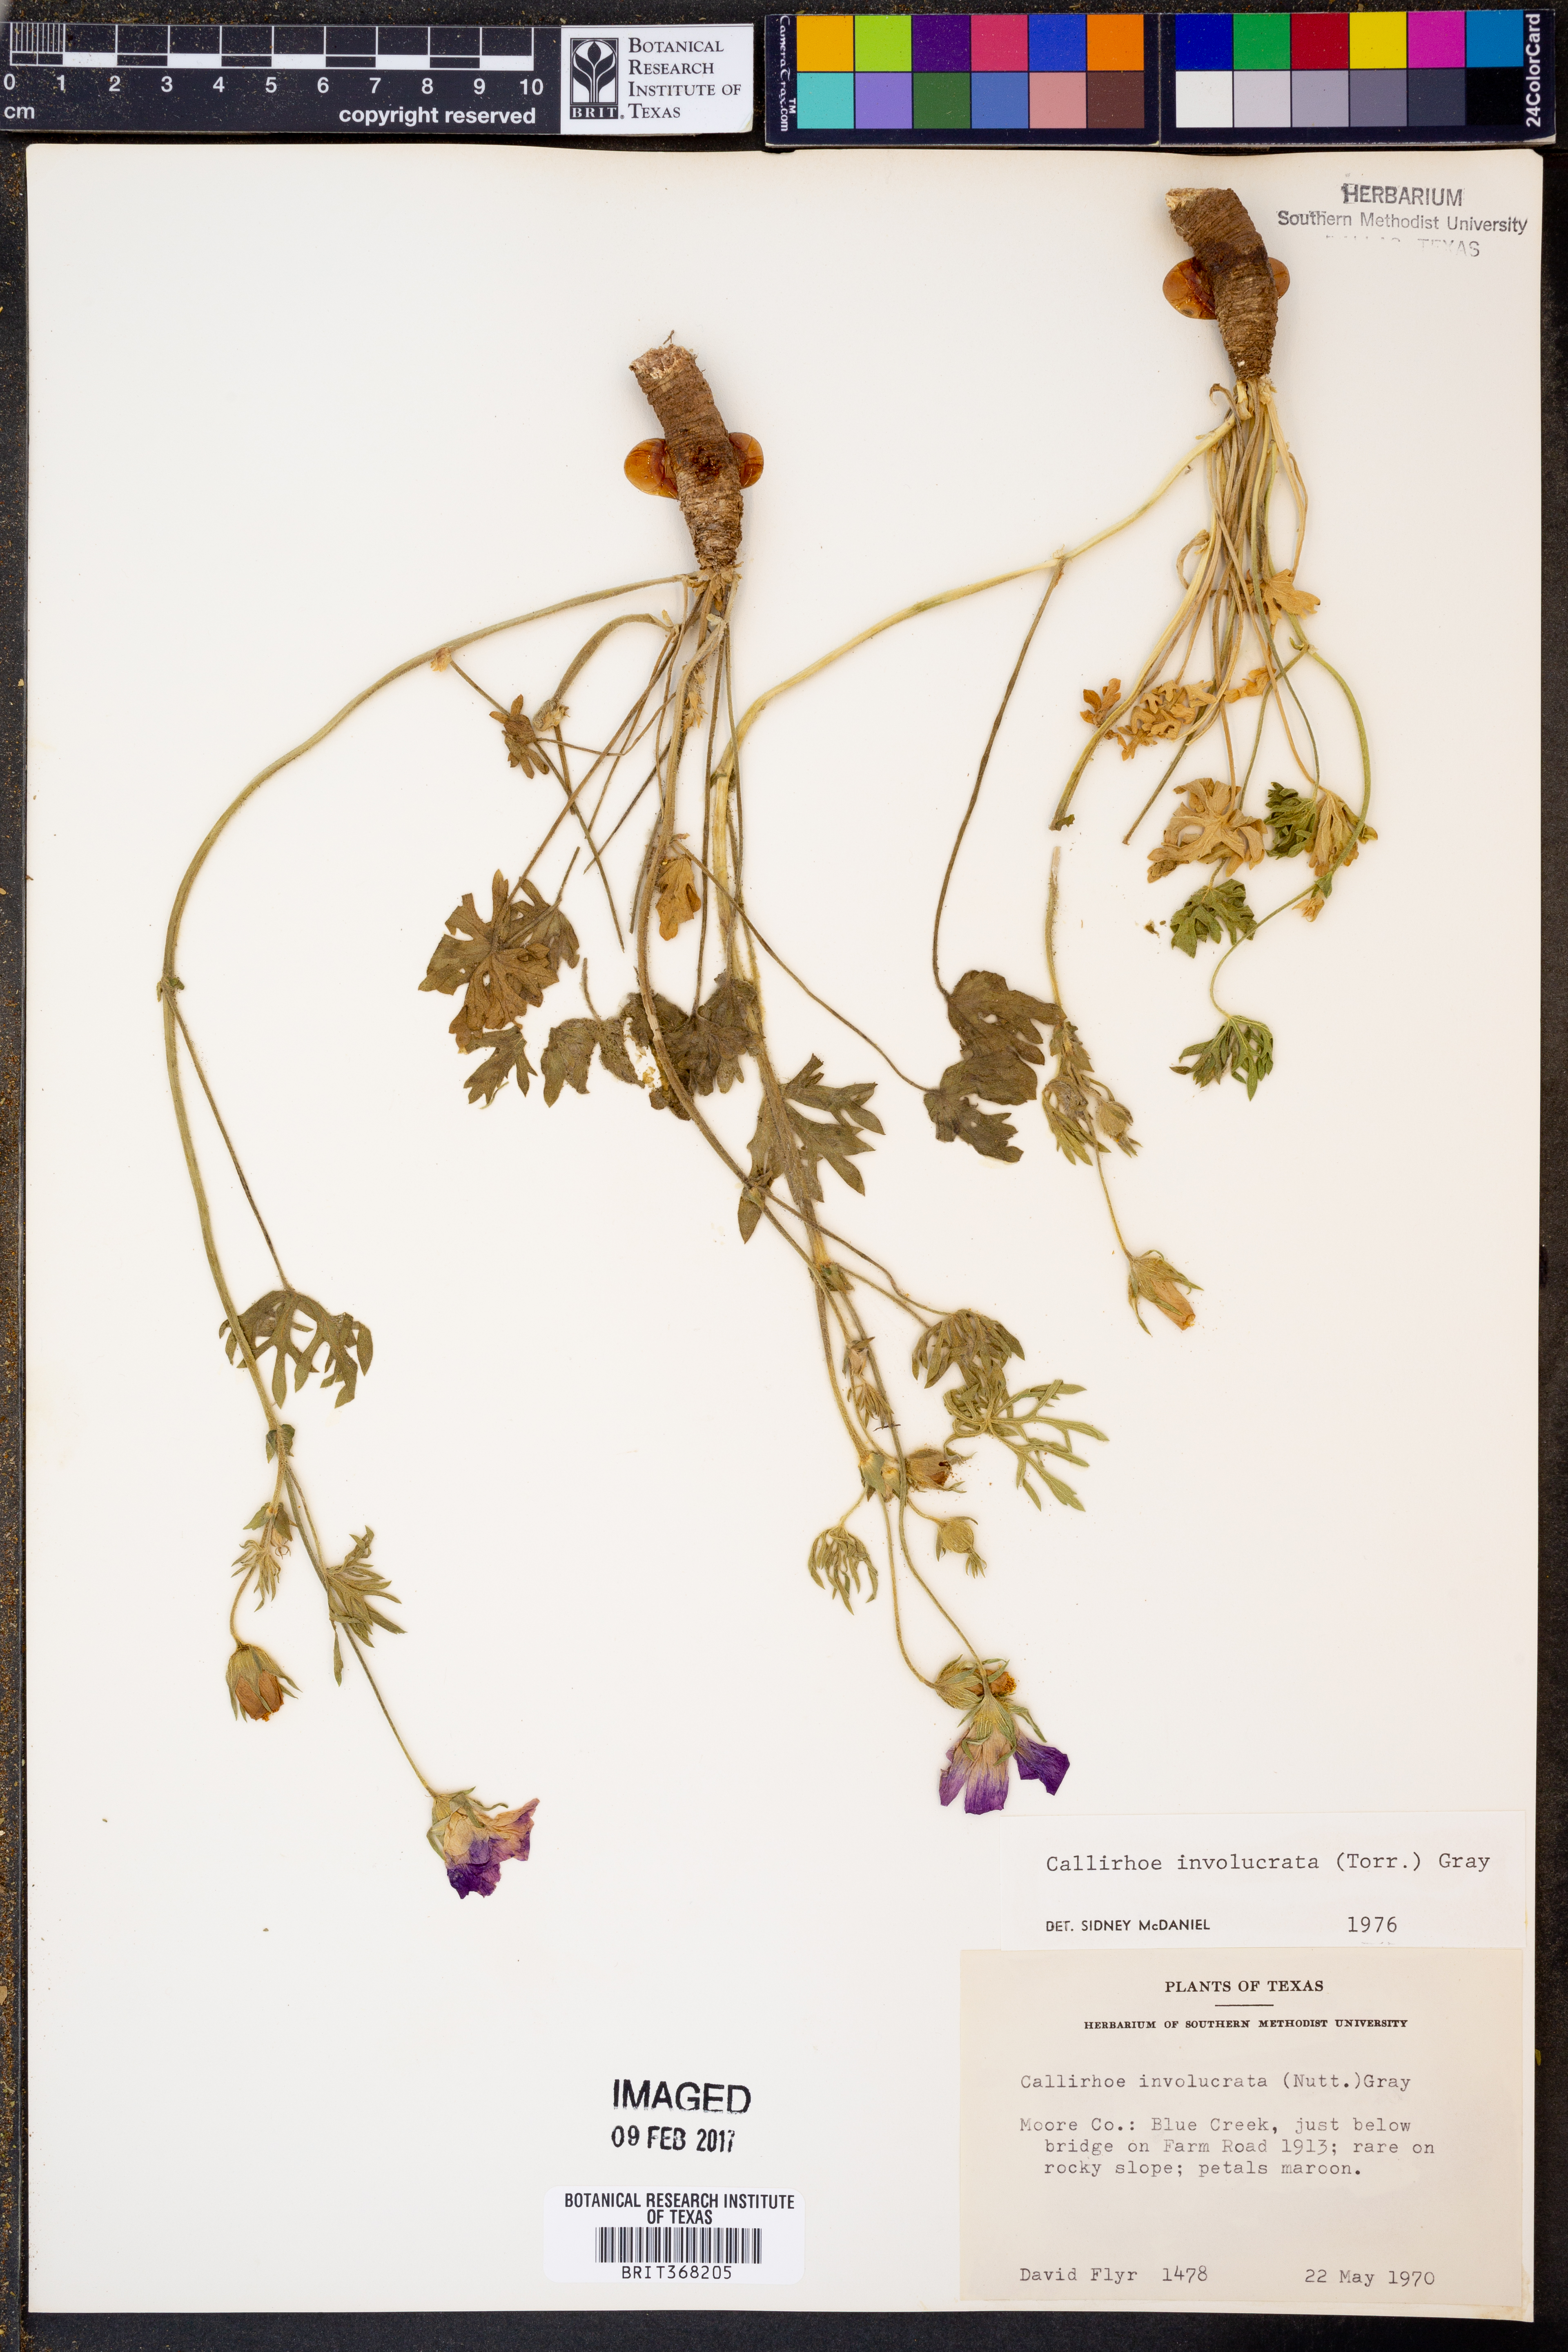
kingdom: Plantae
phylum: Tracheophyta
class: Magnoliopsida
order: Malvales
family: Malvaceae
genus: Callirhoe
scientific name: Callirhoe involucrata
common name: Purple poppy-mallow
